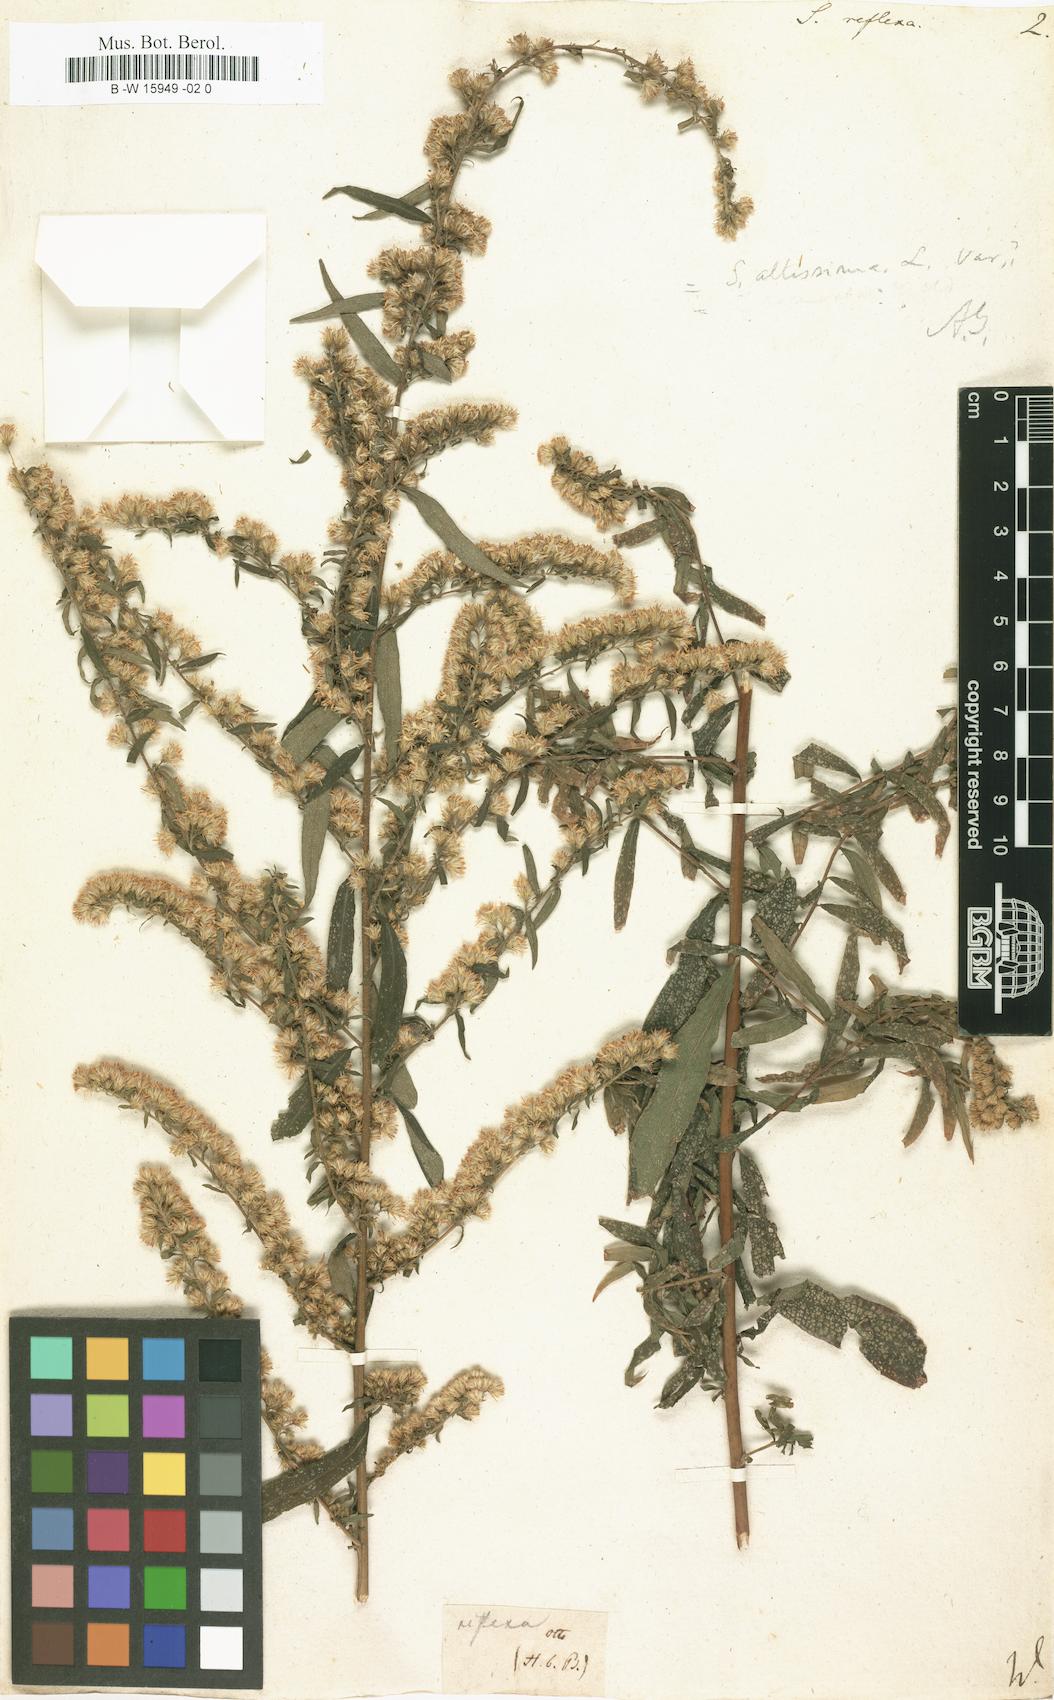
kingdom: Plantae
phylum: Tracheophyta
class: Magnoliopsida
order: Asterales
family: Asteraceae
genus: Solidago
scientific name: Solidago canadensis
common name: Canada goldenrod
